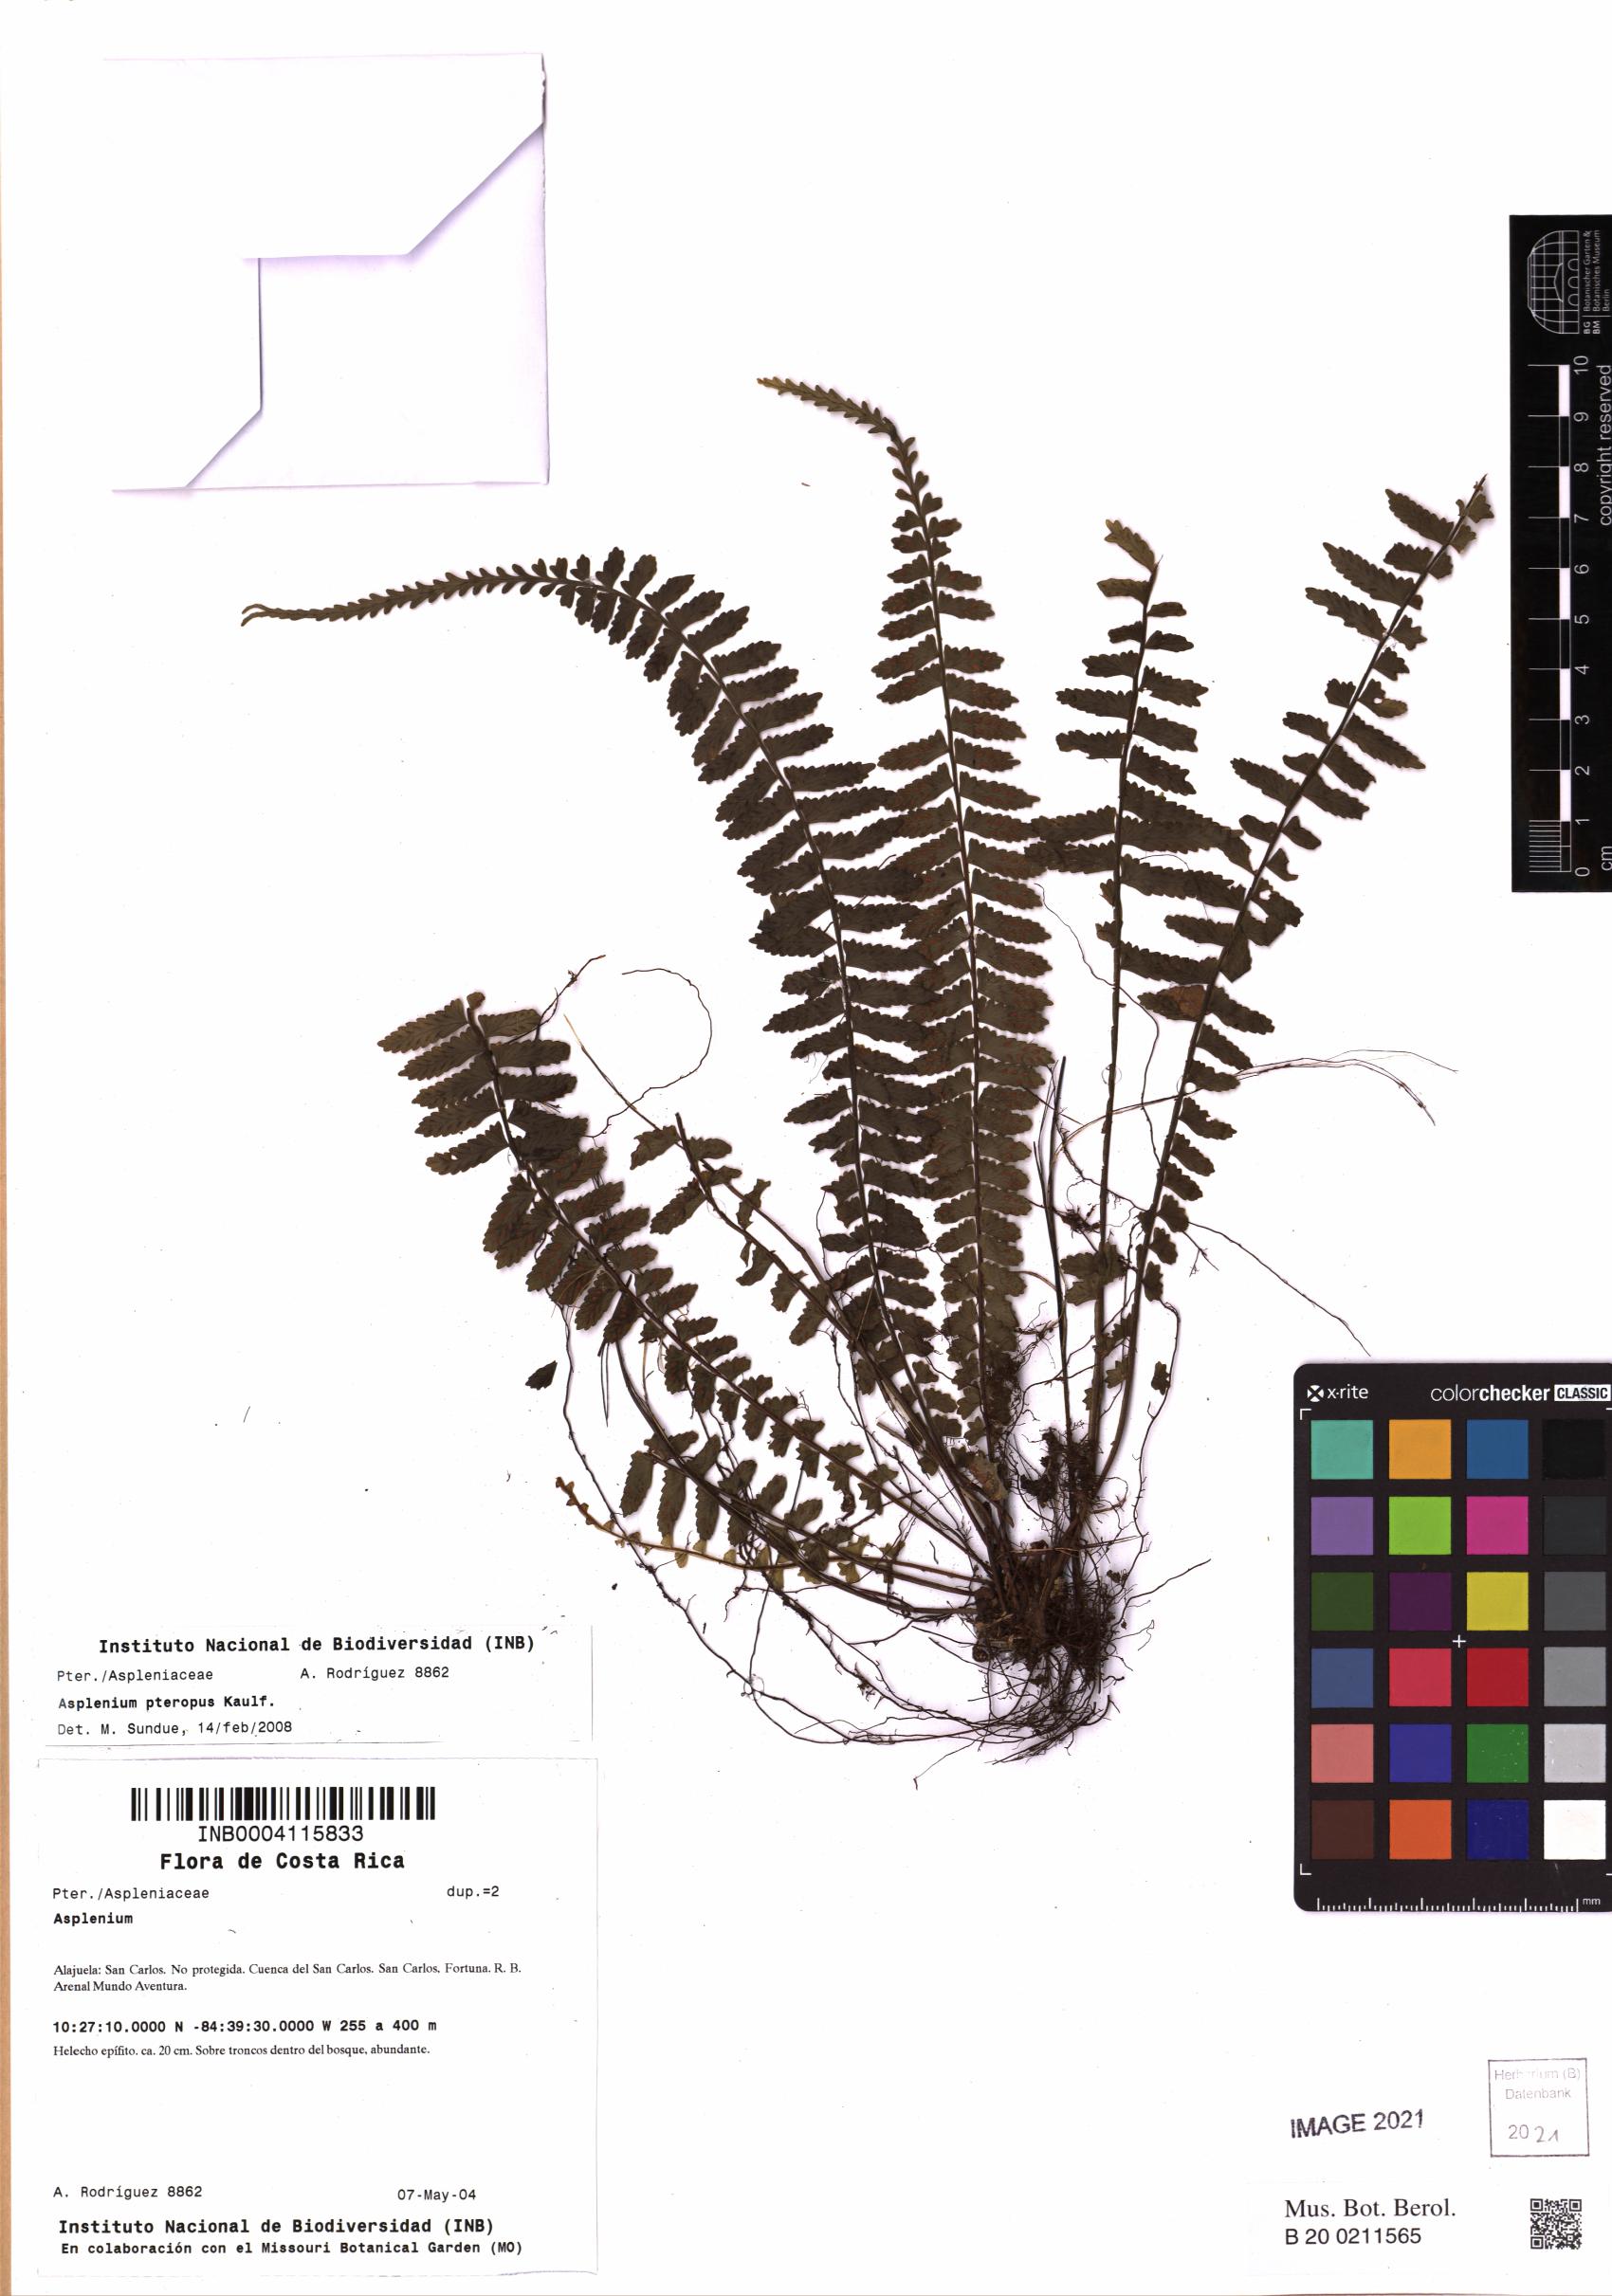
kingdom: Plantae
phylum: Tracheophyta
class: Polypodiopsida
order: Polypodiales
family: Aspleniaceae
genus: Asplenium
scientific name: Asplenium pteropus
